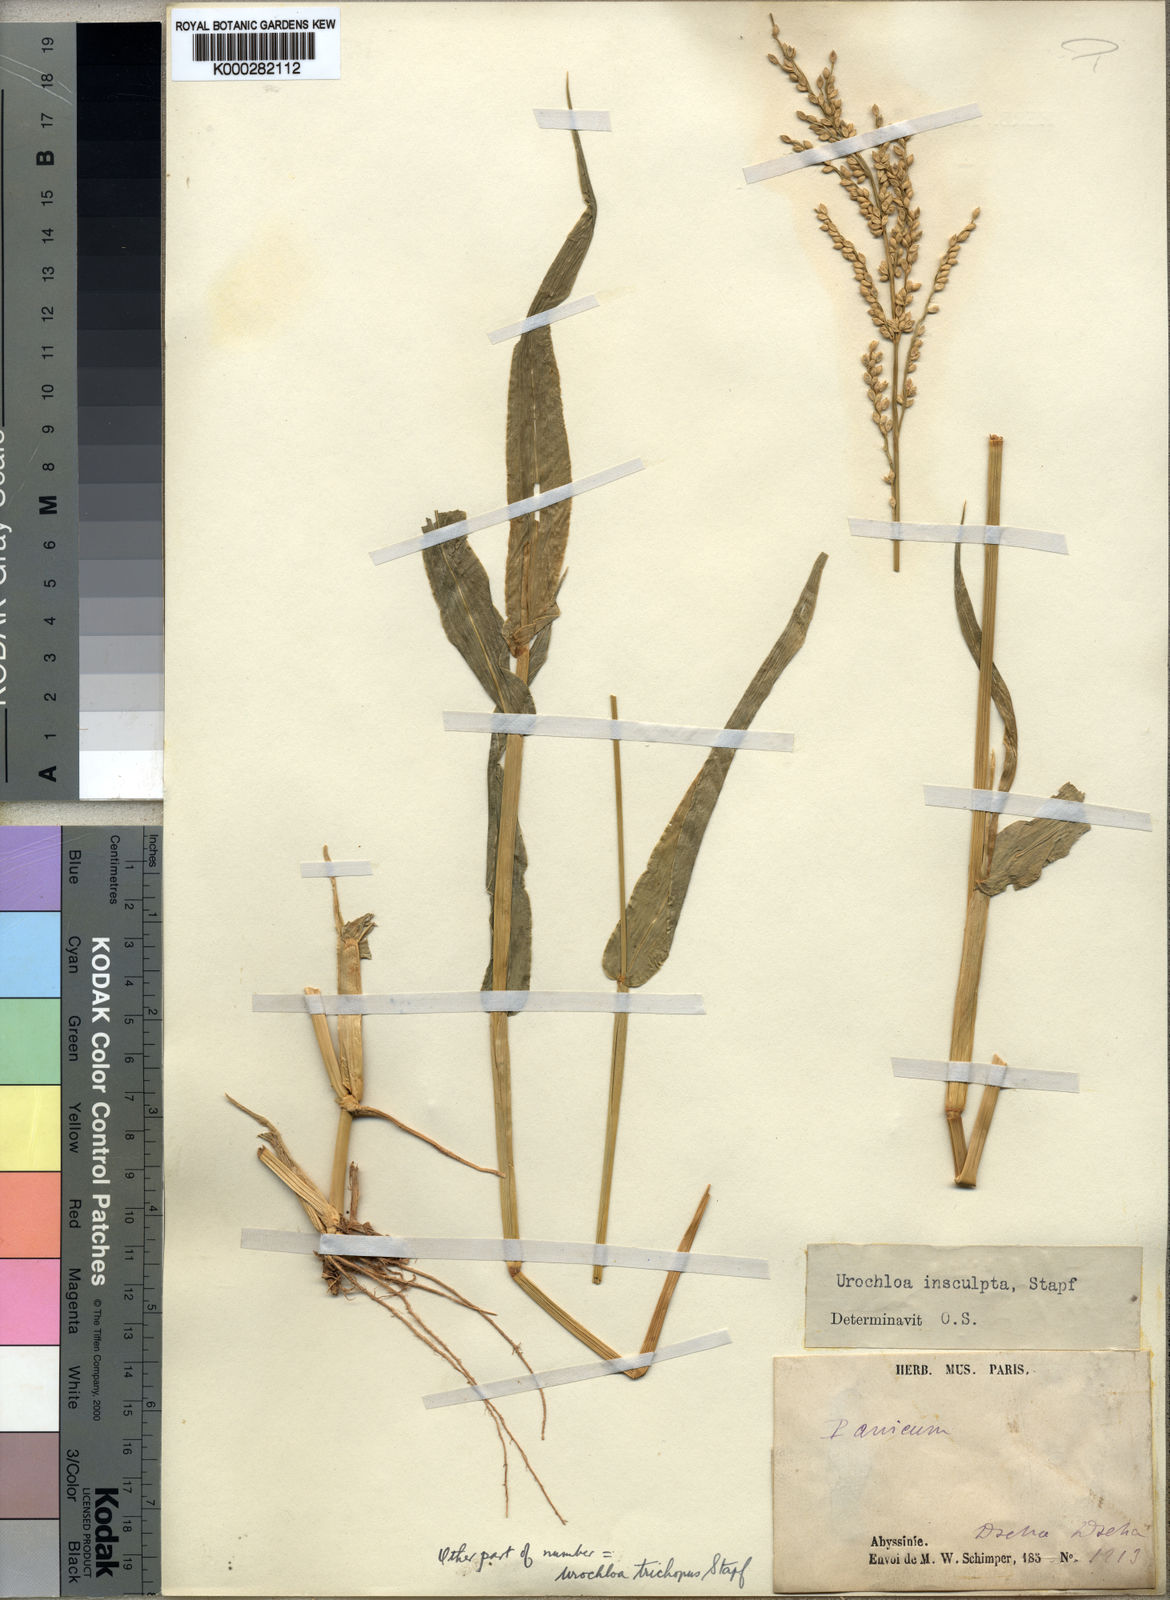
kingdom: Plantae
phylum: Tracheophyta
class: Liliopsida
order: Poales
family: Poaceae
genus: Urochloa
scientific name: Urochloa lata
